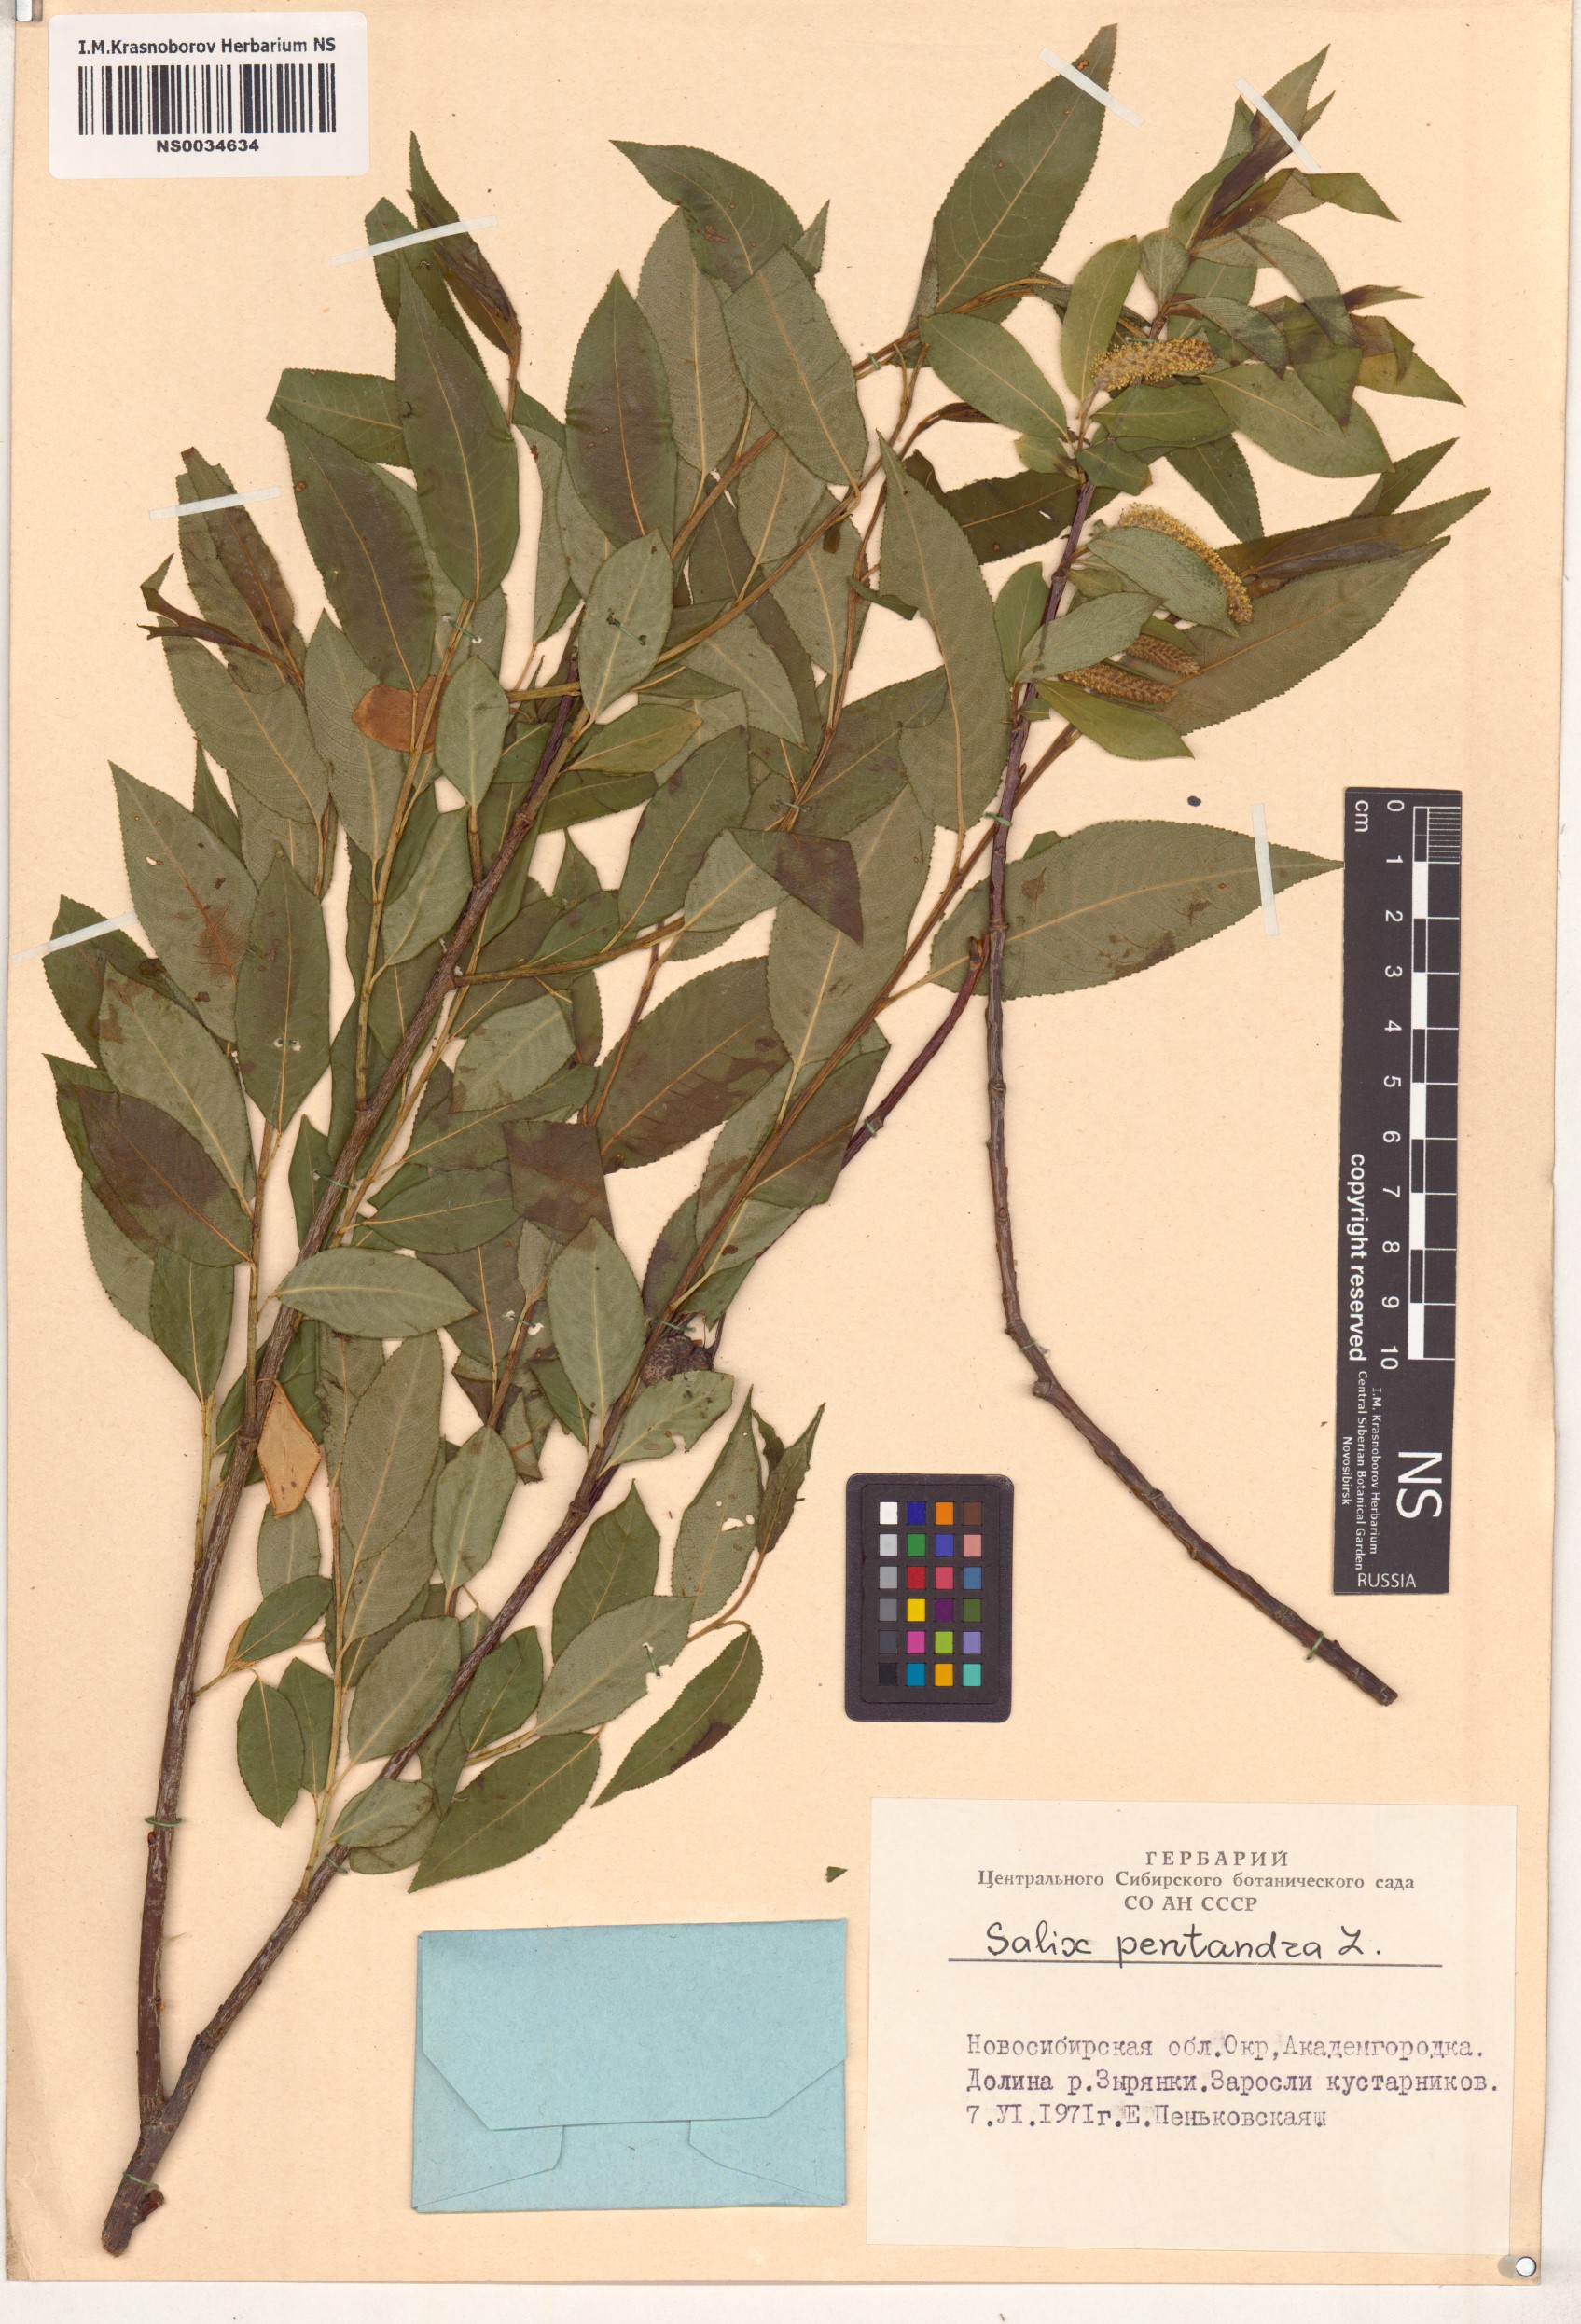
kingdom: Plantae
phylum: Tracheophyta
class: Magnoliopsida
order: Malpighiales
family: Salicaceae
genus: Salix
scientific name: Salix pentandra
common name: Bay willow
